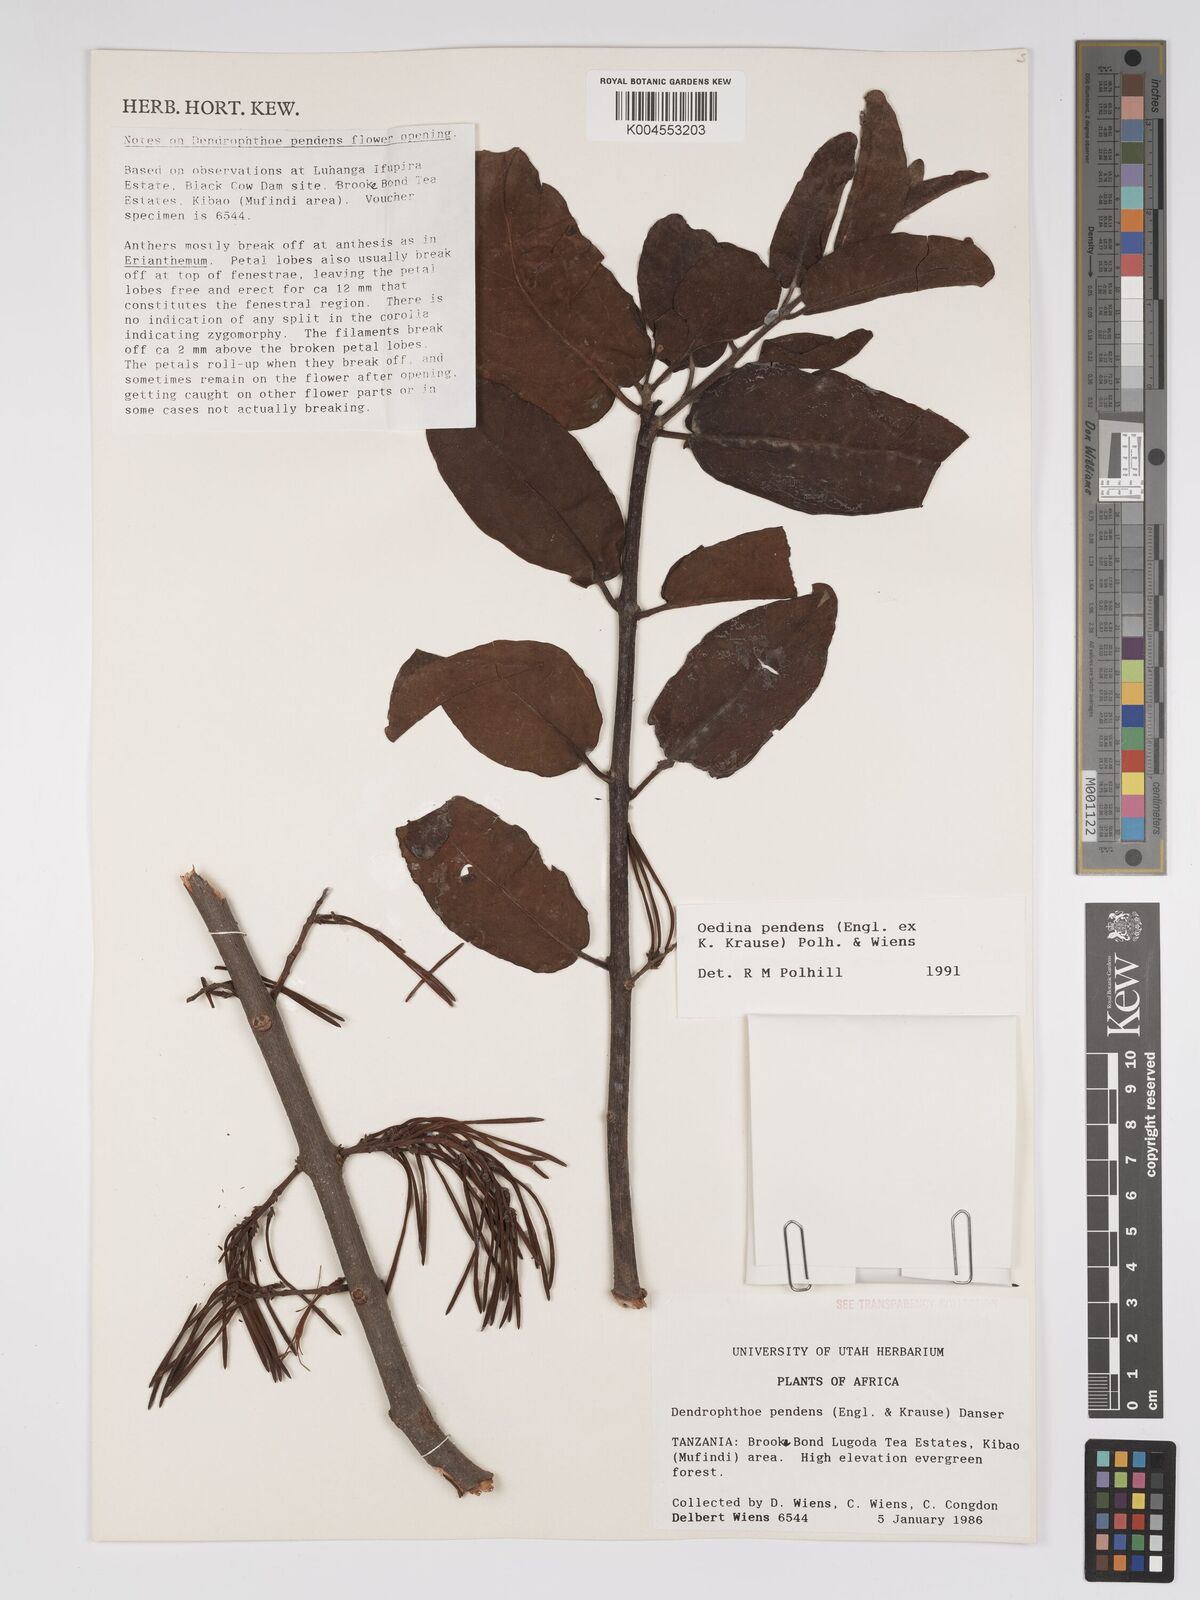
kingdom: Plantae
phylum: Tracheophyta
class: Magnoliopsida
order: Santalales
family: Loranthaceae
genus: Oedina
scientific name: Oedina pendens
